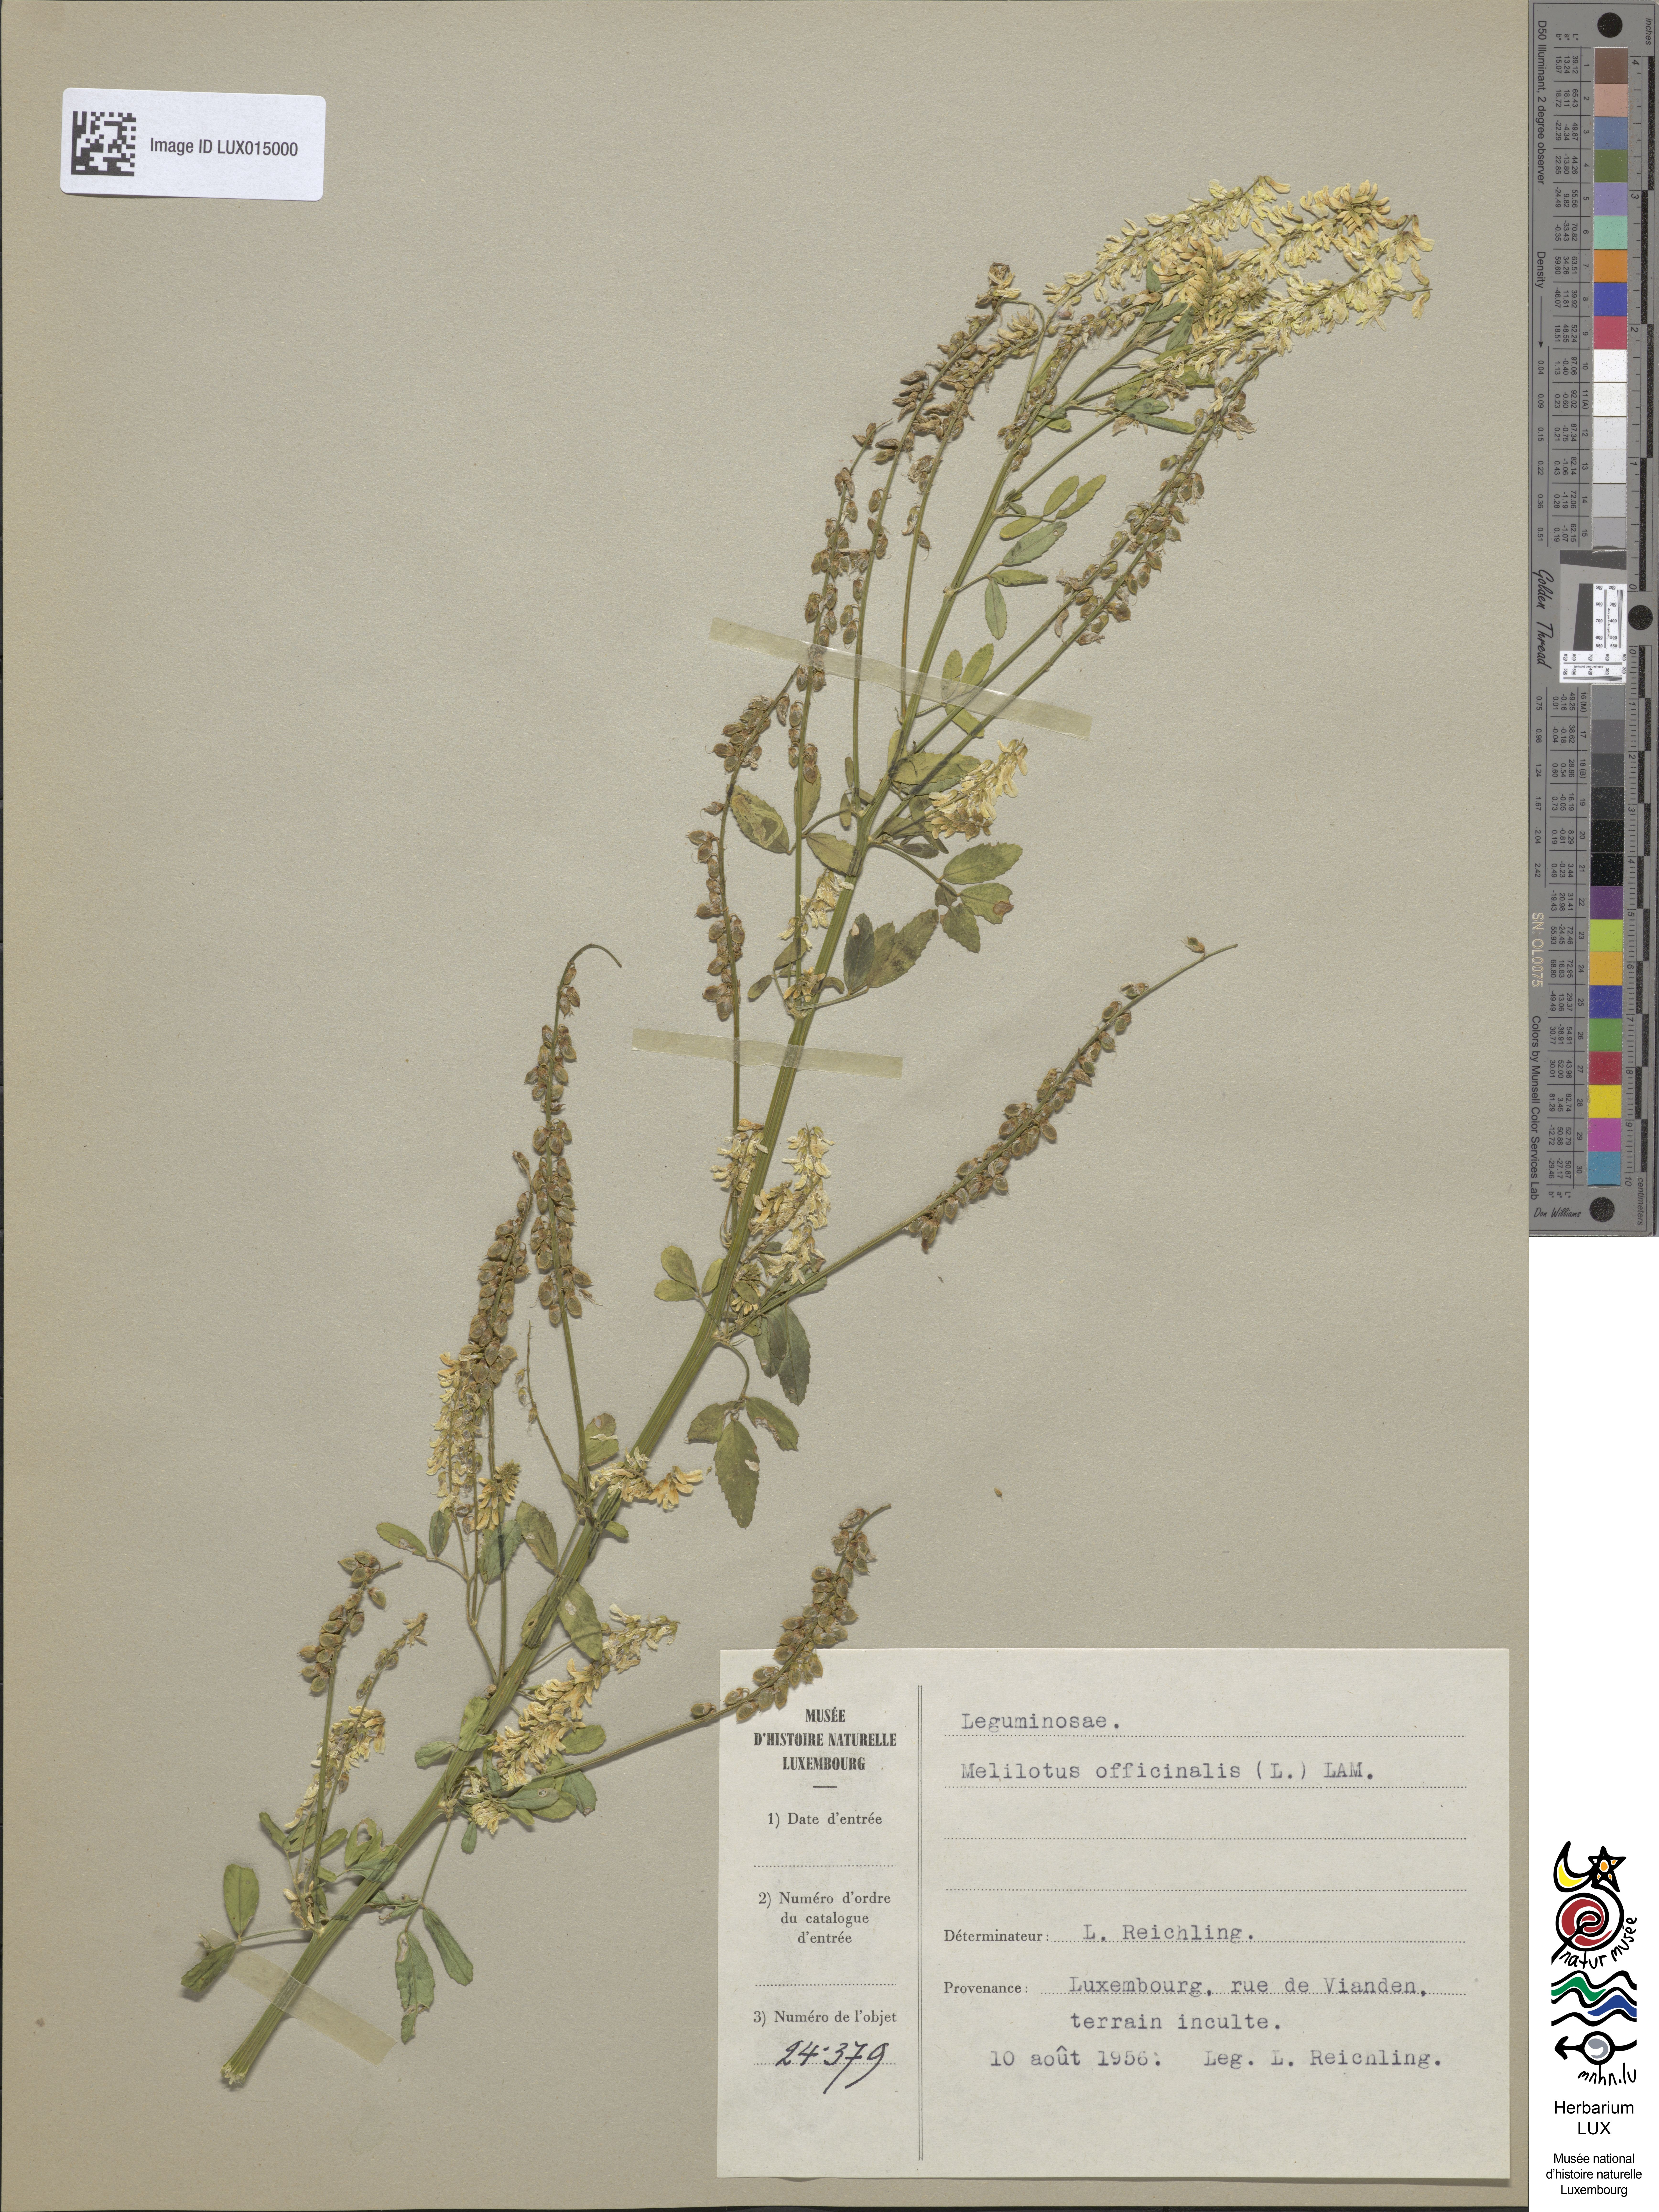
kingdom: Plantae
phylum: Tracheophyta
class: Magnoliopsida
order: Fabales
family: Fabaceae
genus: Melilotus
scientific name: Melilotus officinalis
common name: Sweetclover
